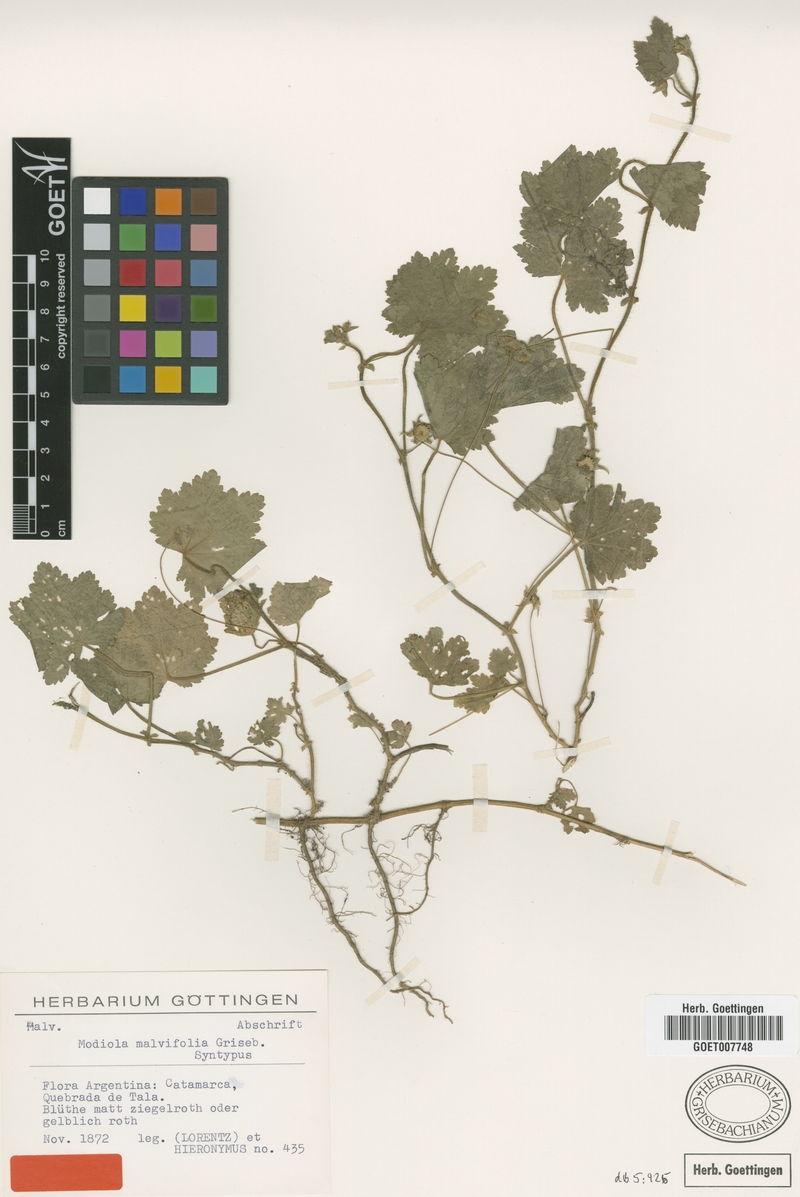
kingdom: Plantae
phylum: Tracheophyta
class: Magnoliopsida
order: Malvales
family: Malvaceae
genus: Modiolastrum
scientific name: Modiolastrum malvifolium
